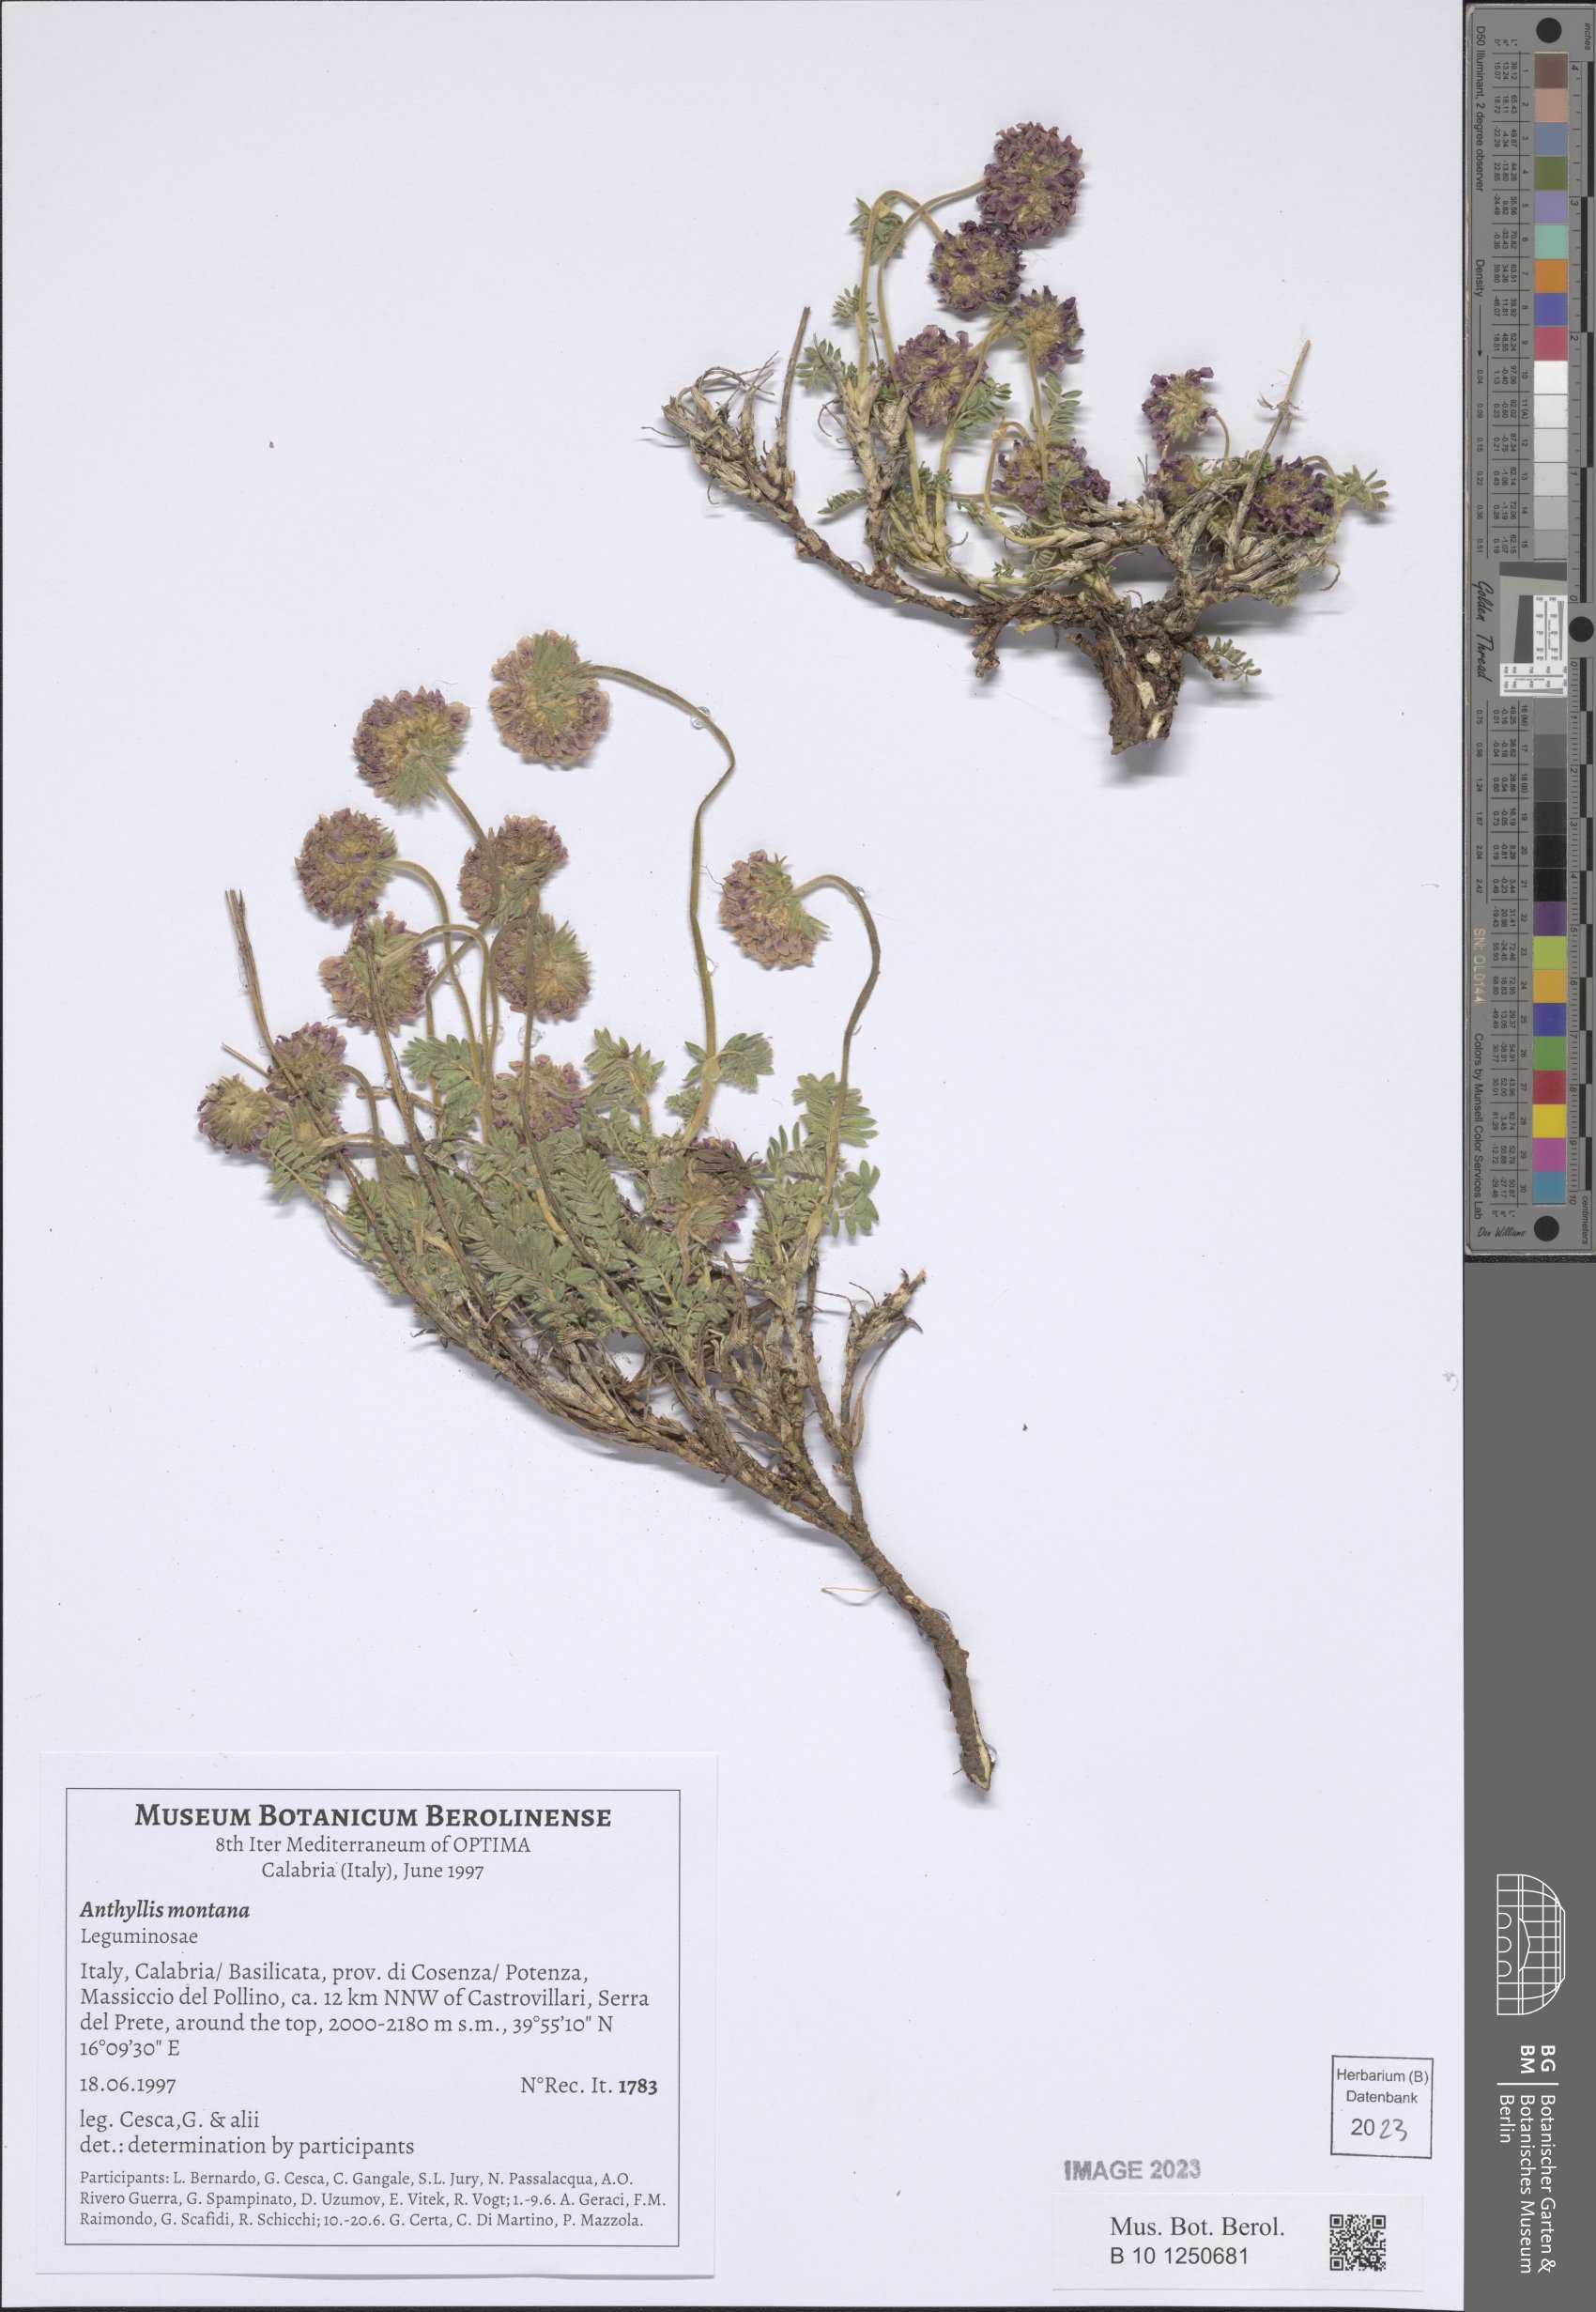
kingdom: Plantae
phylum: Tracheophyta
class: Magnoliopsida
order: Fabales
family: Fabaceae
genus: Anthyllis
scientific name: Anthyllis montana
